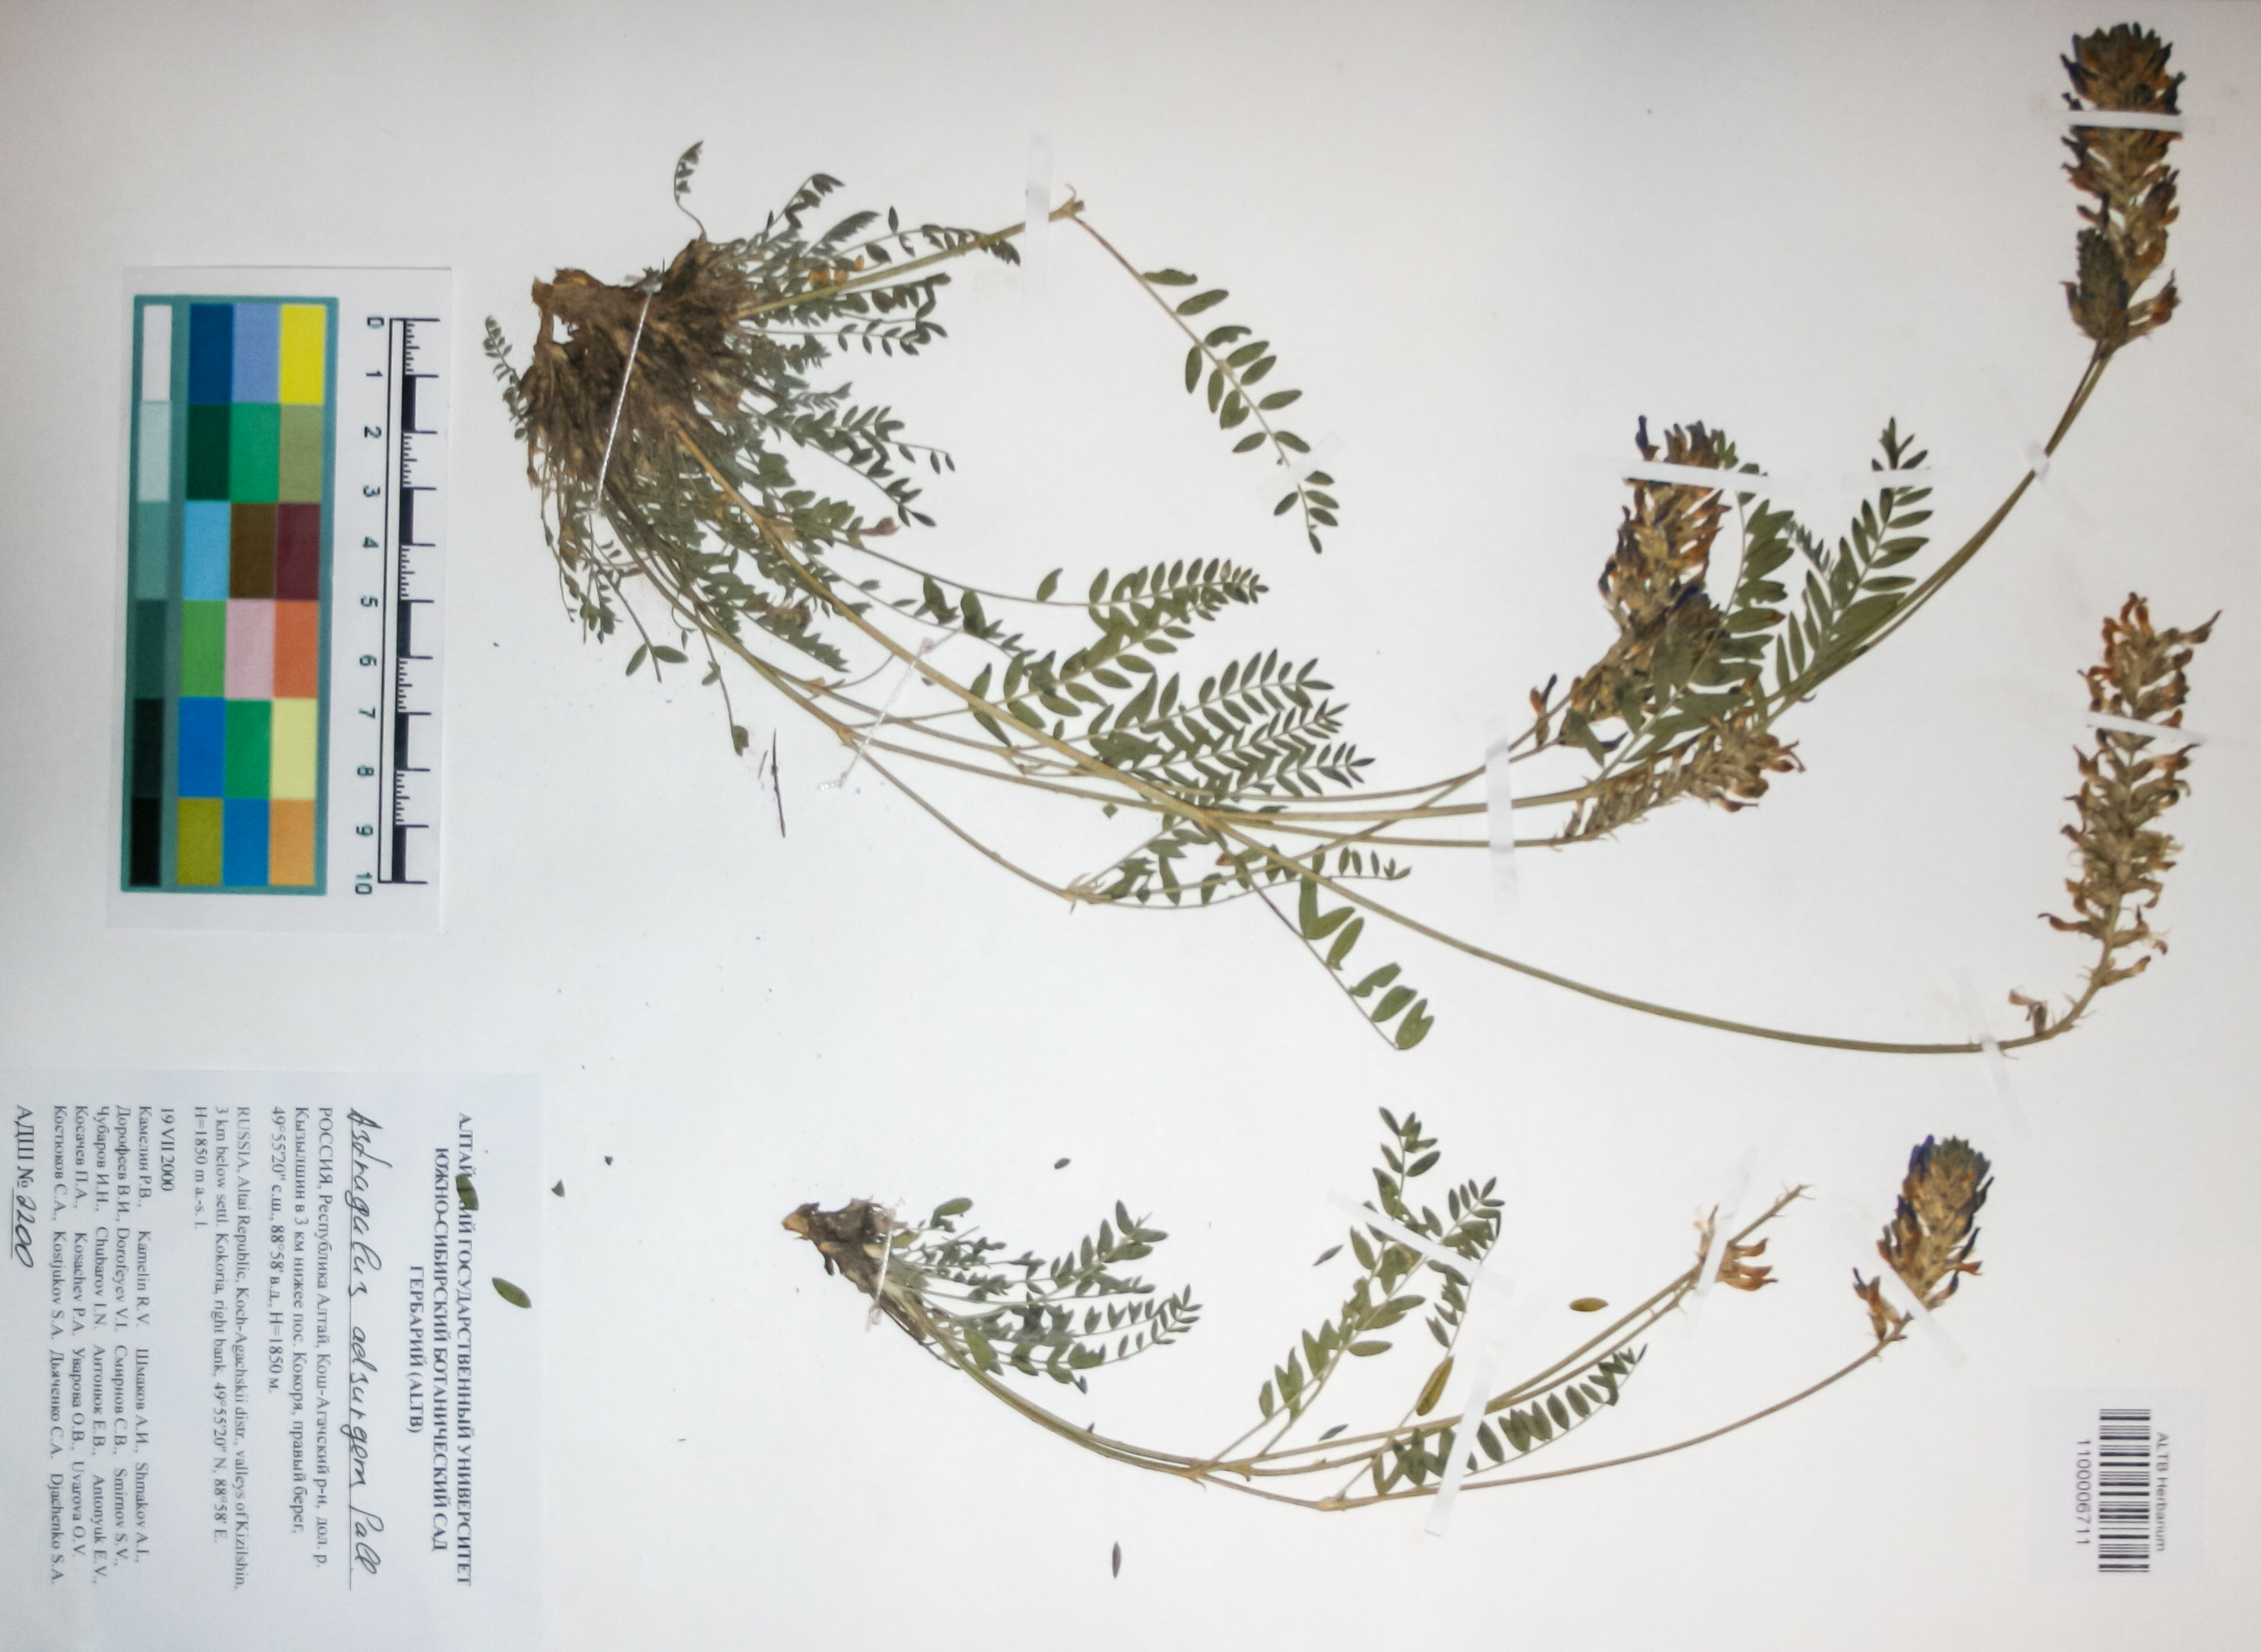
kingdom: Plantae
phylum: Tracheophyta
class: Magnoliopsida
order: Fabales
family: Fabaceae
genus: Astragalus
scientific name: Astragalus laxmannii
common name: Laxmann's milk-vetch
